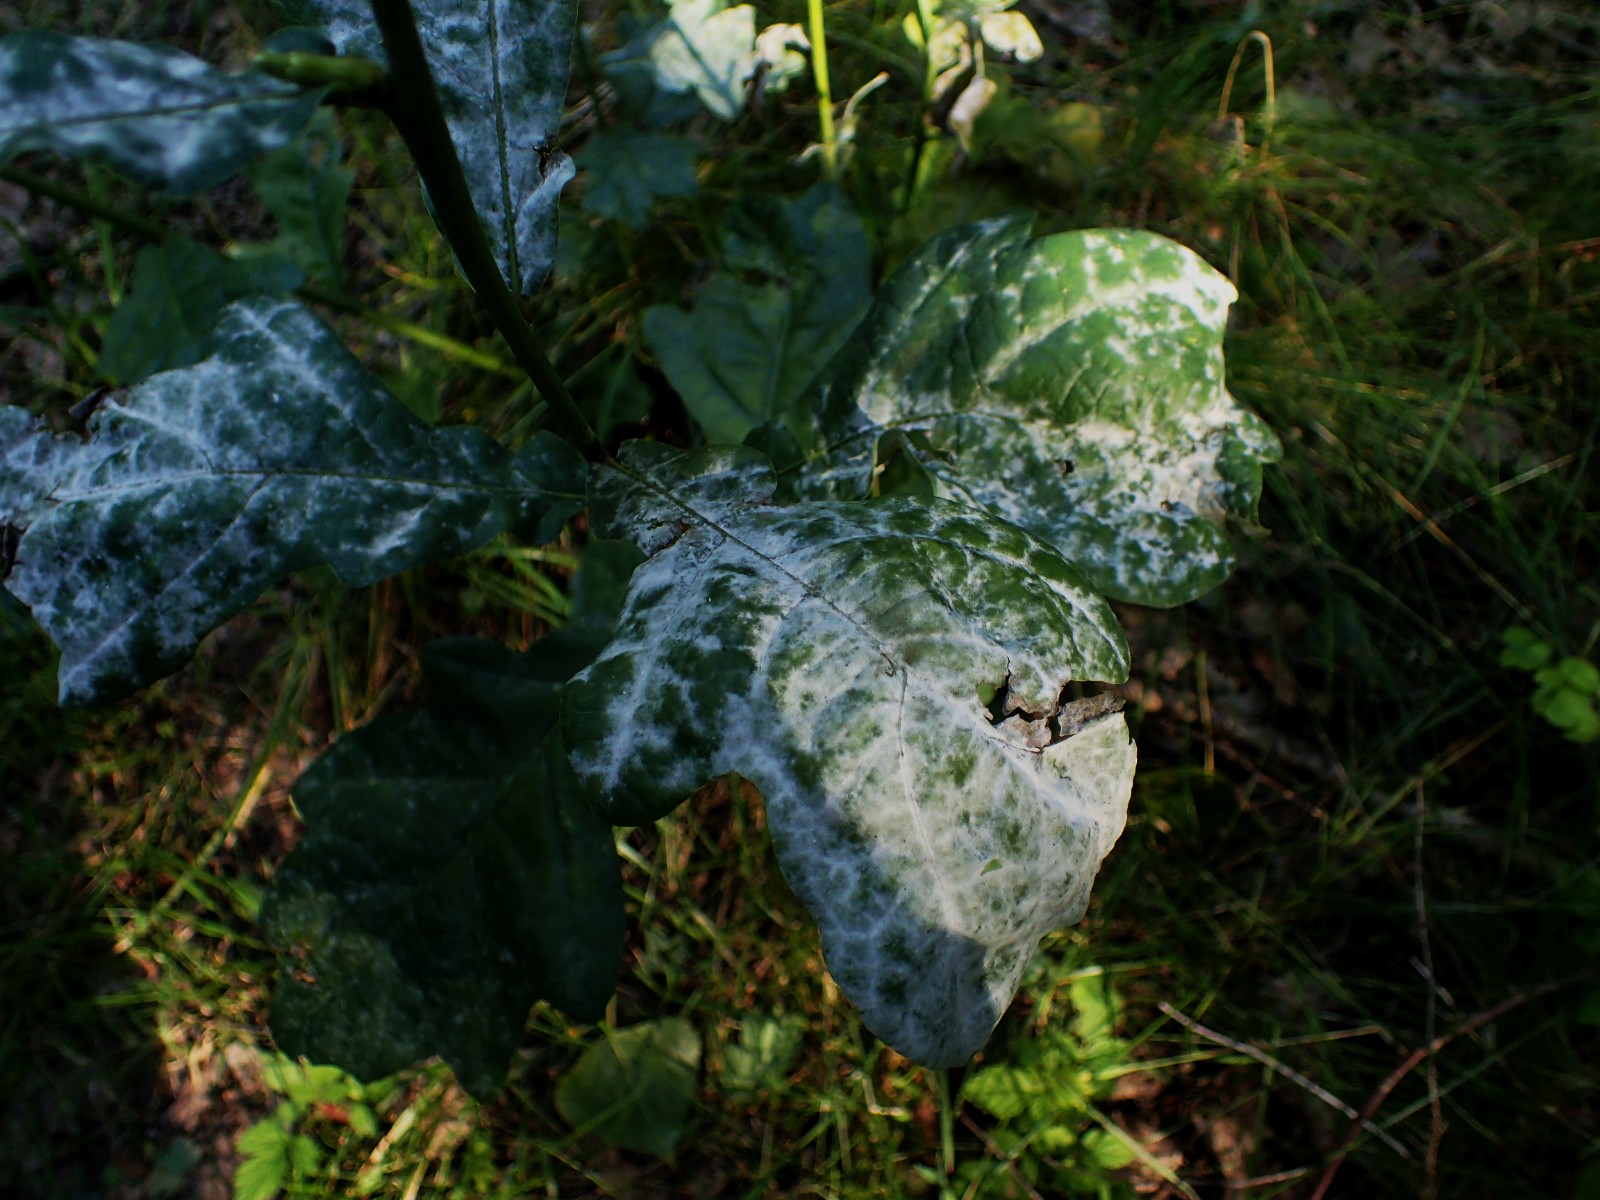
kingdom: Fungi
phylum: Ascomycota
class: Leotiomycetes
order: Helotiales
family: Erysiphaceae
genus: Erysiphe
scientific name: Erysiphe alphitoides
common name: ege-meldug
